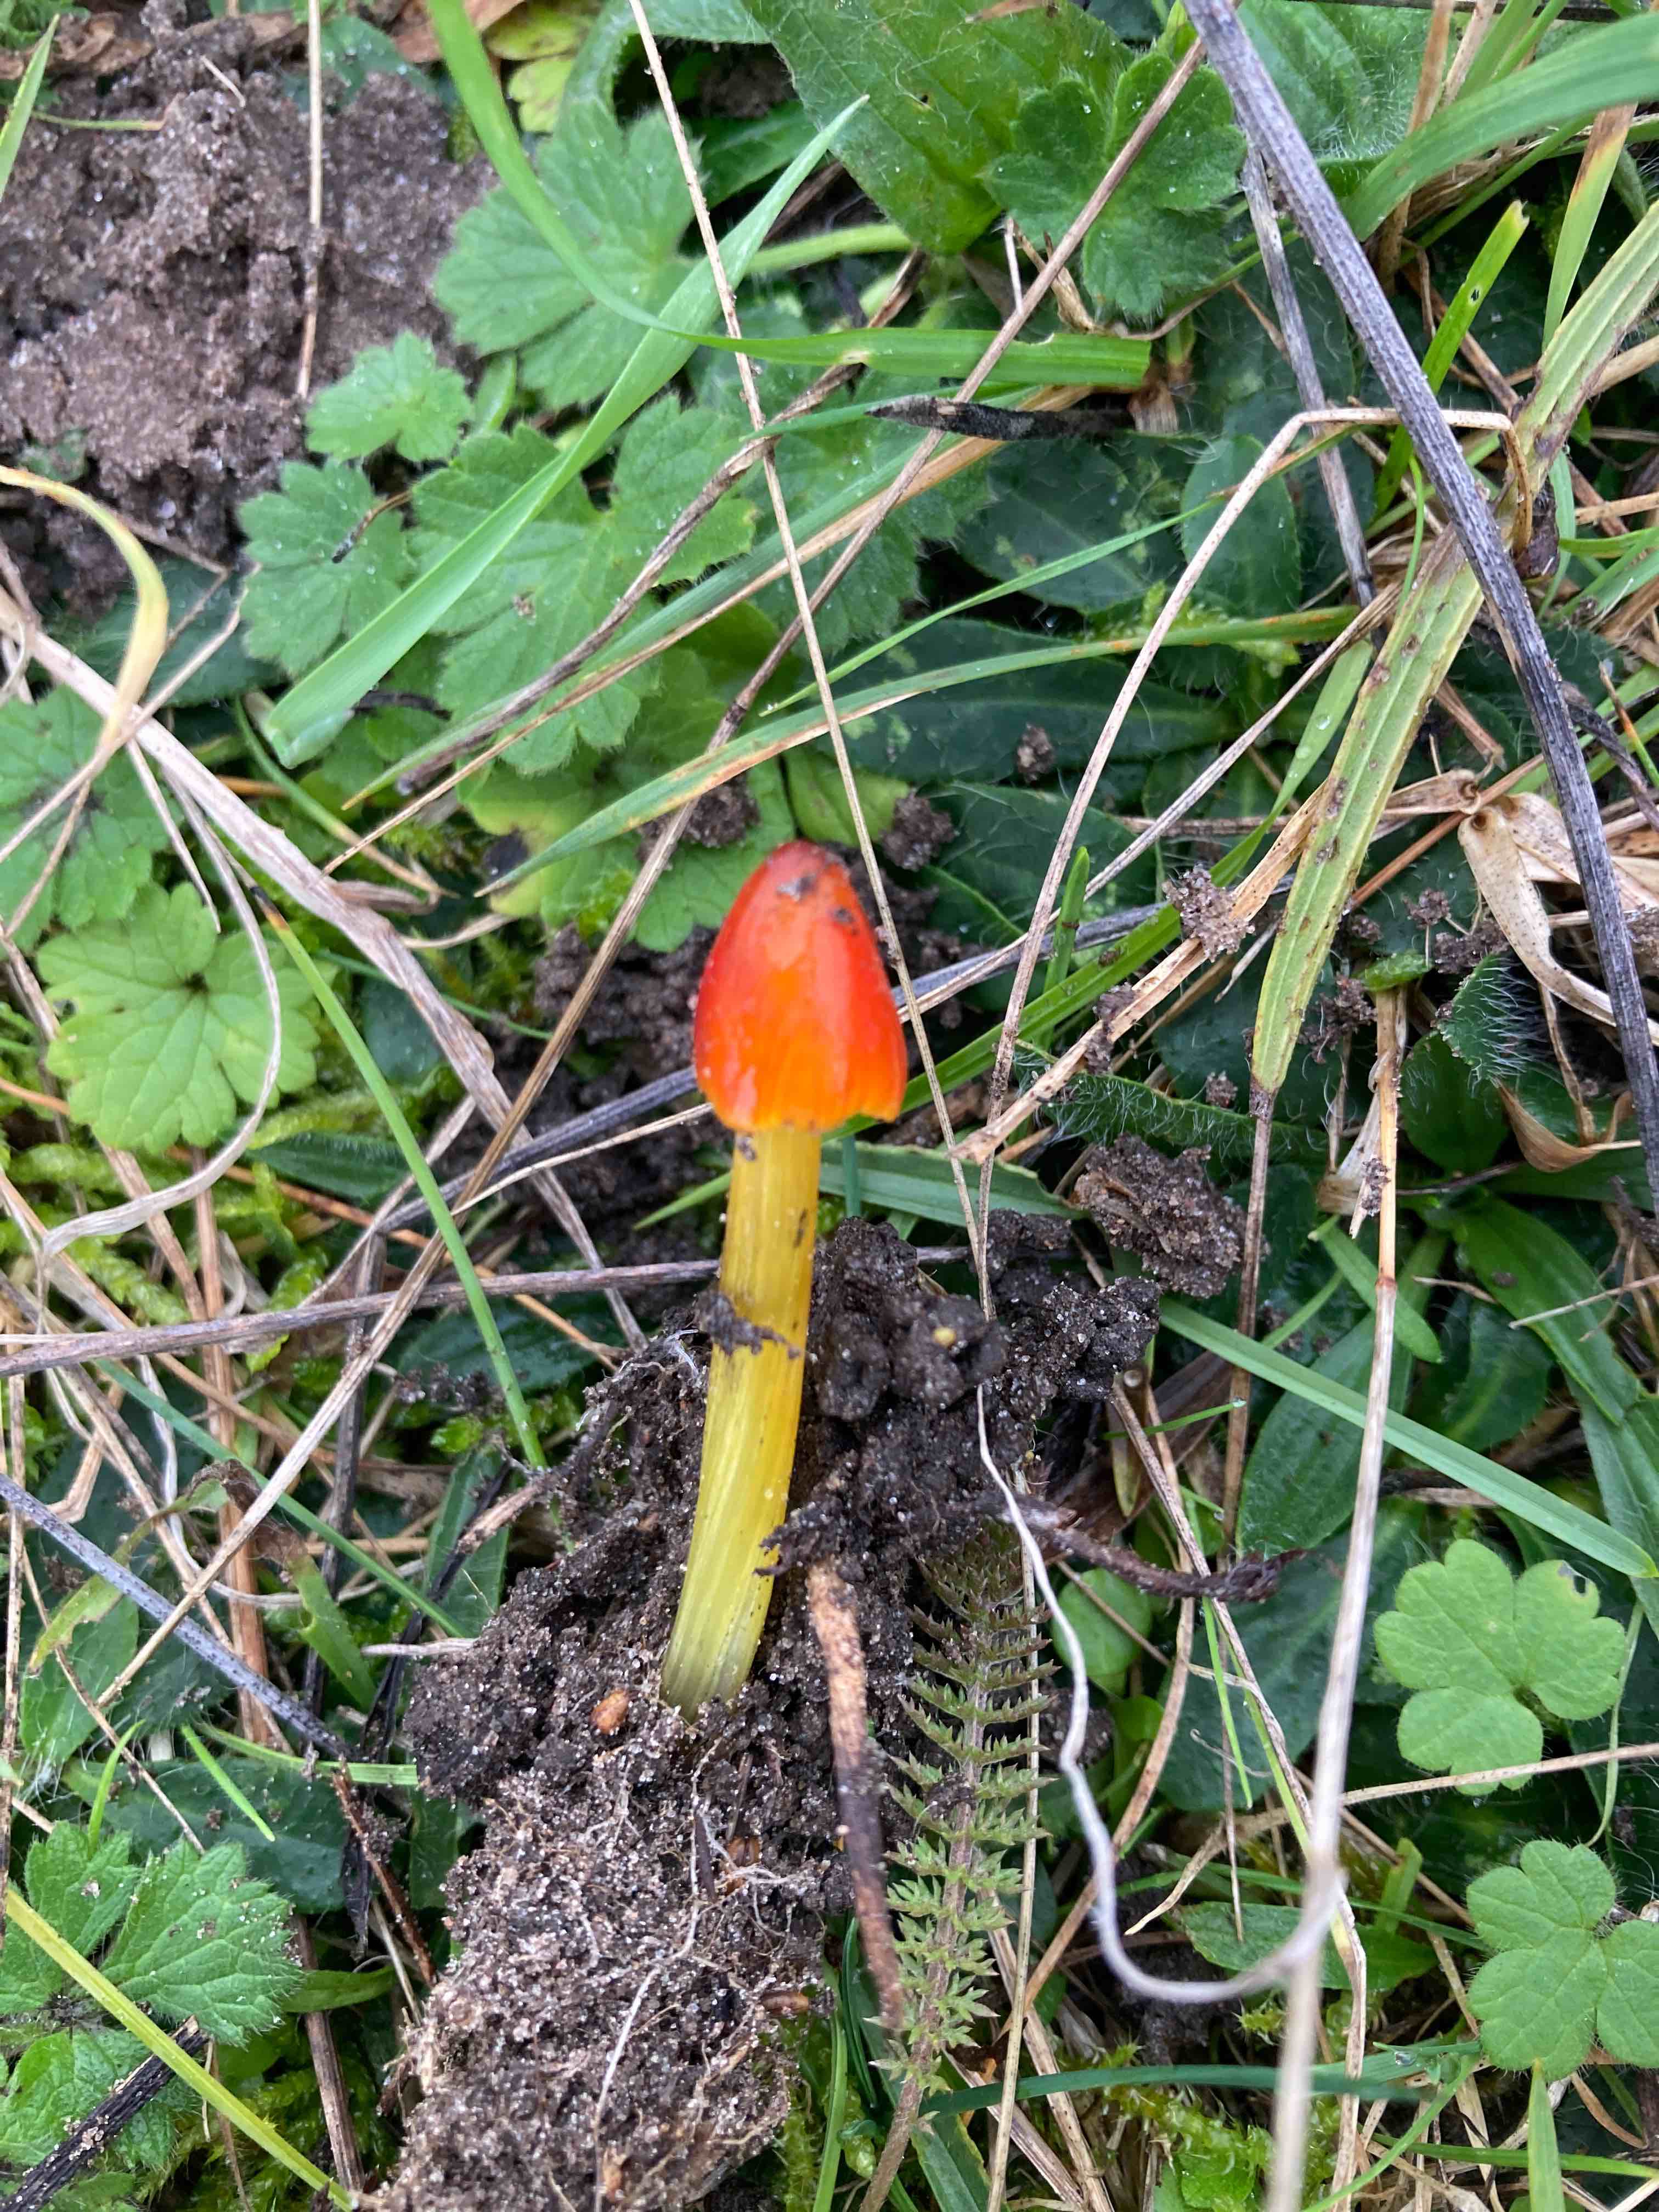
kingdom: Fungi
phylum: Basidiomycota
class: Agaricomycetes
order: Agaricales
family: Hygrophoraceae
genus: Hygrocybe
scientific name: Hygrocybe conica
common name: kegle-vokshat
